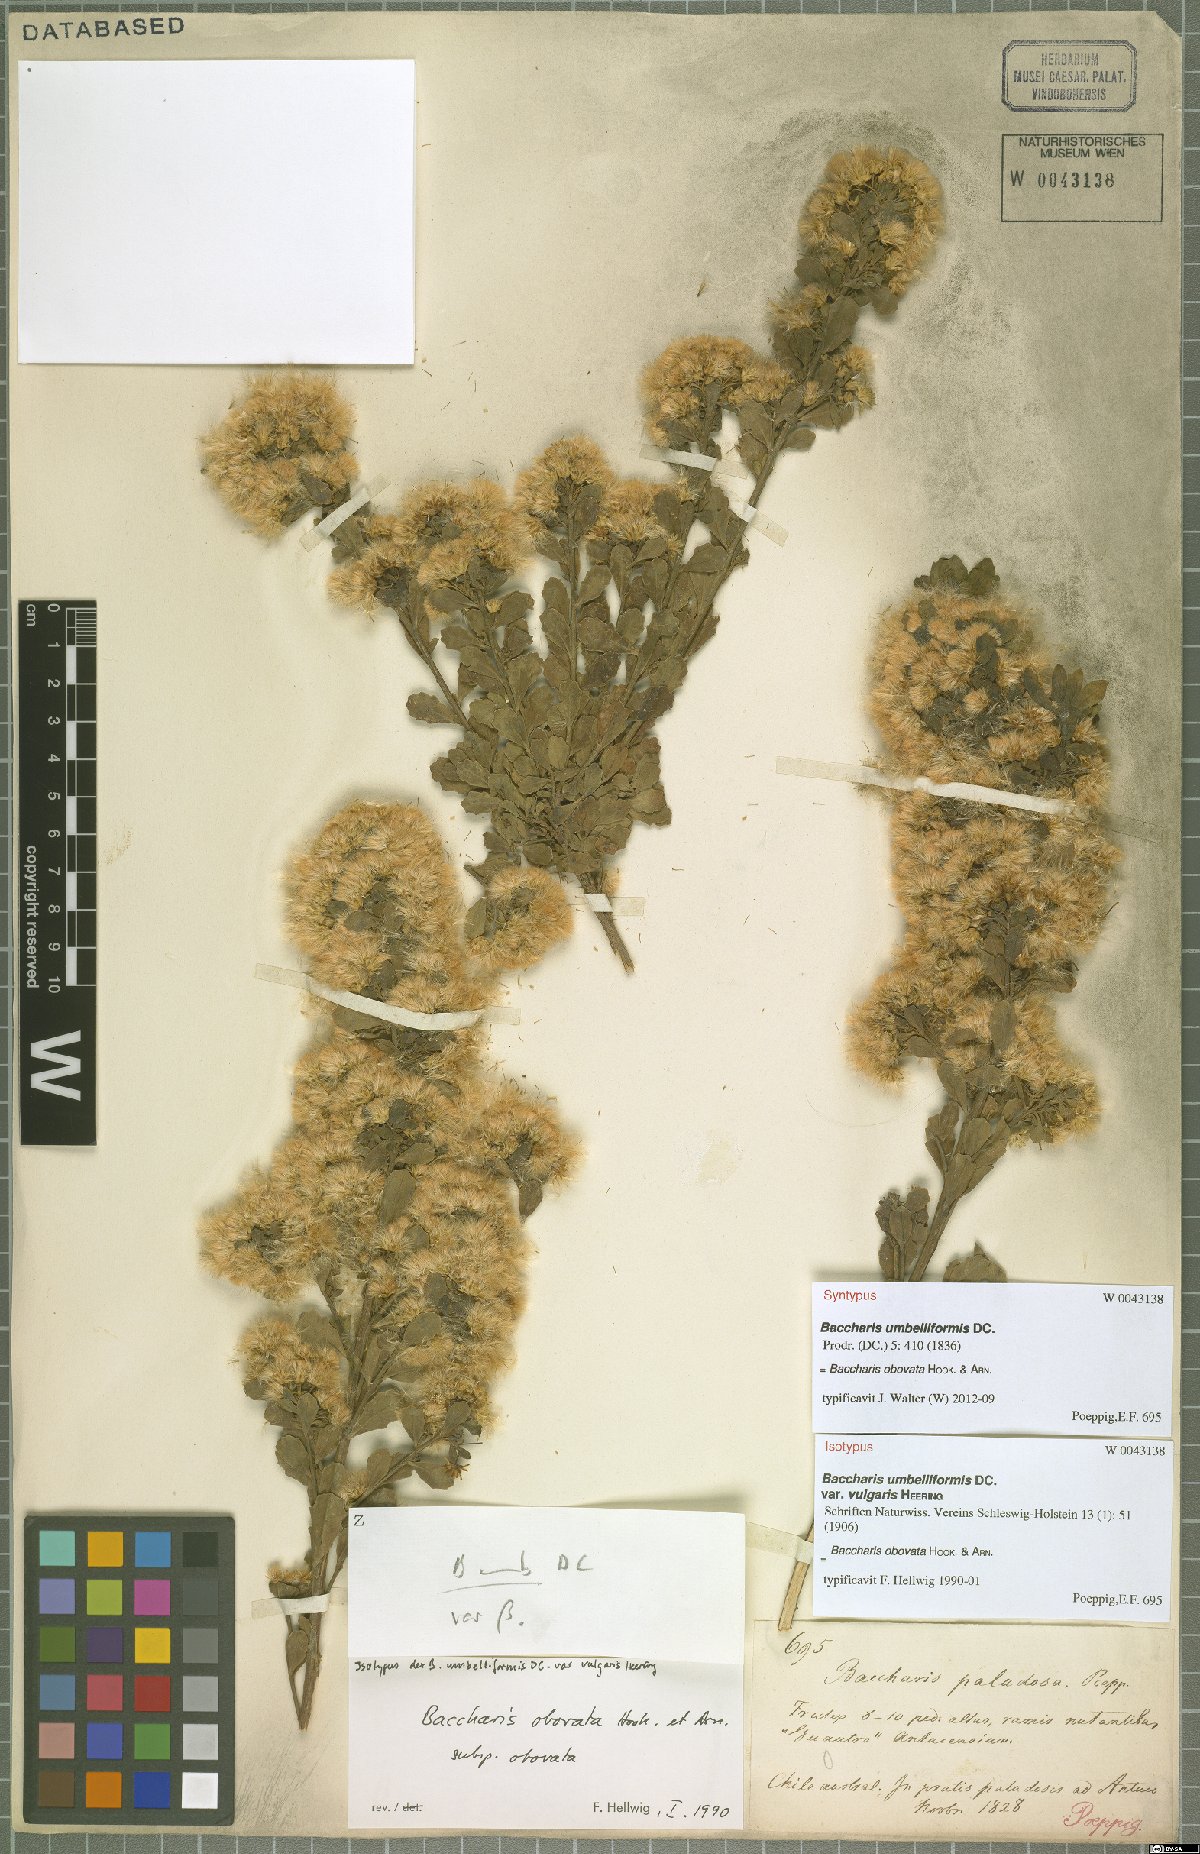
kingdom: Plantae
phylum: Tracheophyta
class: Magnoliopsida
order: Asterales
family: Asteraceae
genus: Baccharis
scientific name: Baccharis obovata
